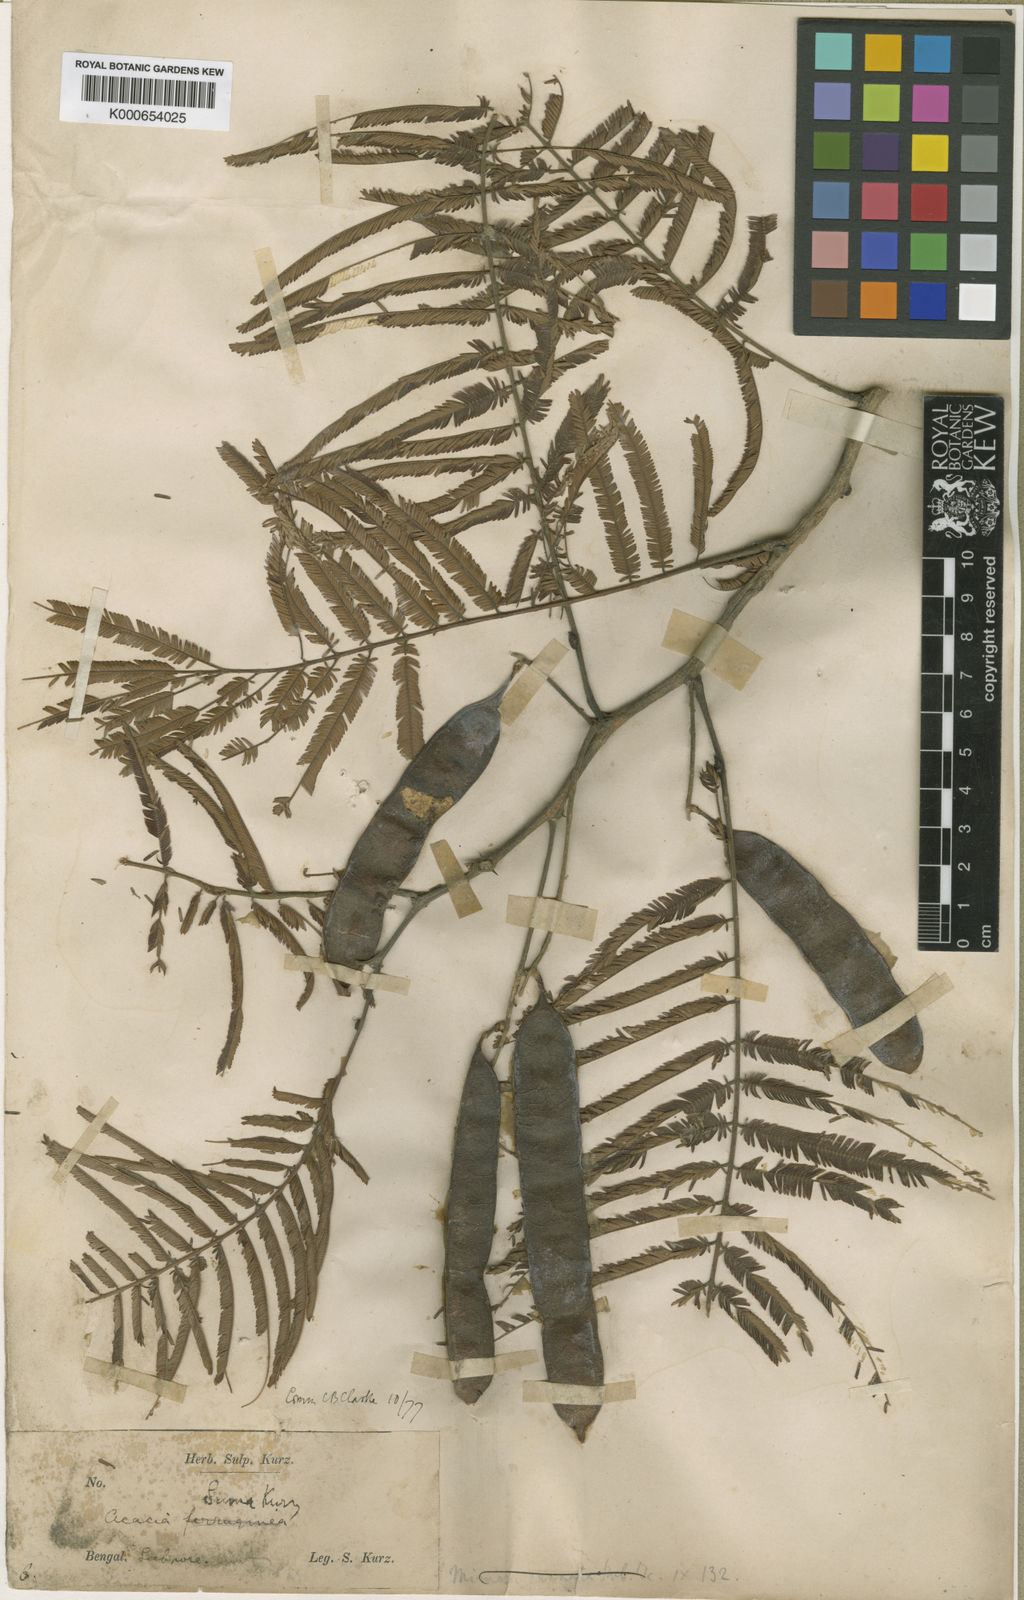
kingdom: Plantae
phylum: Tracheophyta
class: Magnoliopsida
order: Fabales
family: Fabaceae
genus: Senegalia
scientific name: Senegalia polyacantha
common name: Whitethorn
